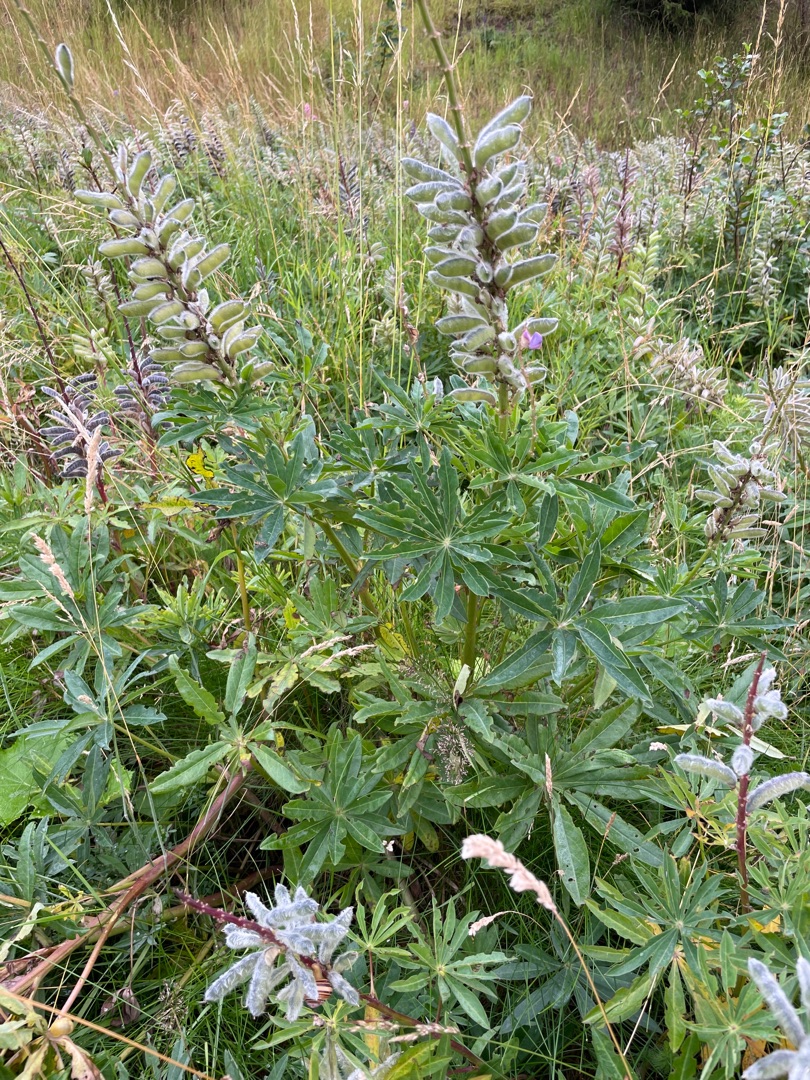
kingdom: Plantae
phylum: Tracheophyta
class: Magnoliopsida
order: Fabales
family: Fabaceae
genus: Lupinus
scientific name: Lupinus polyphyllus
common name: Mangebladet lupin
